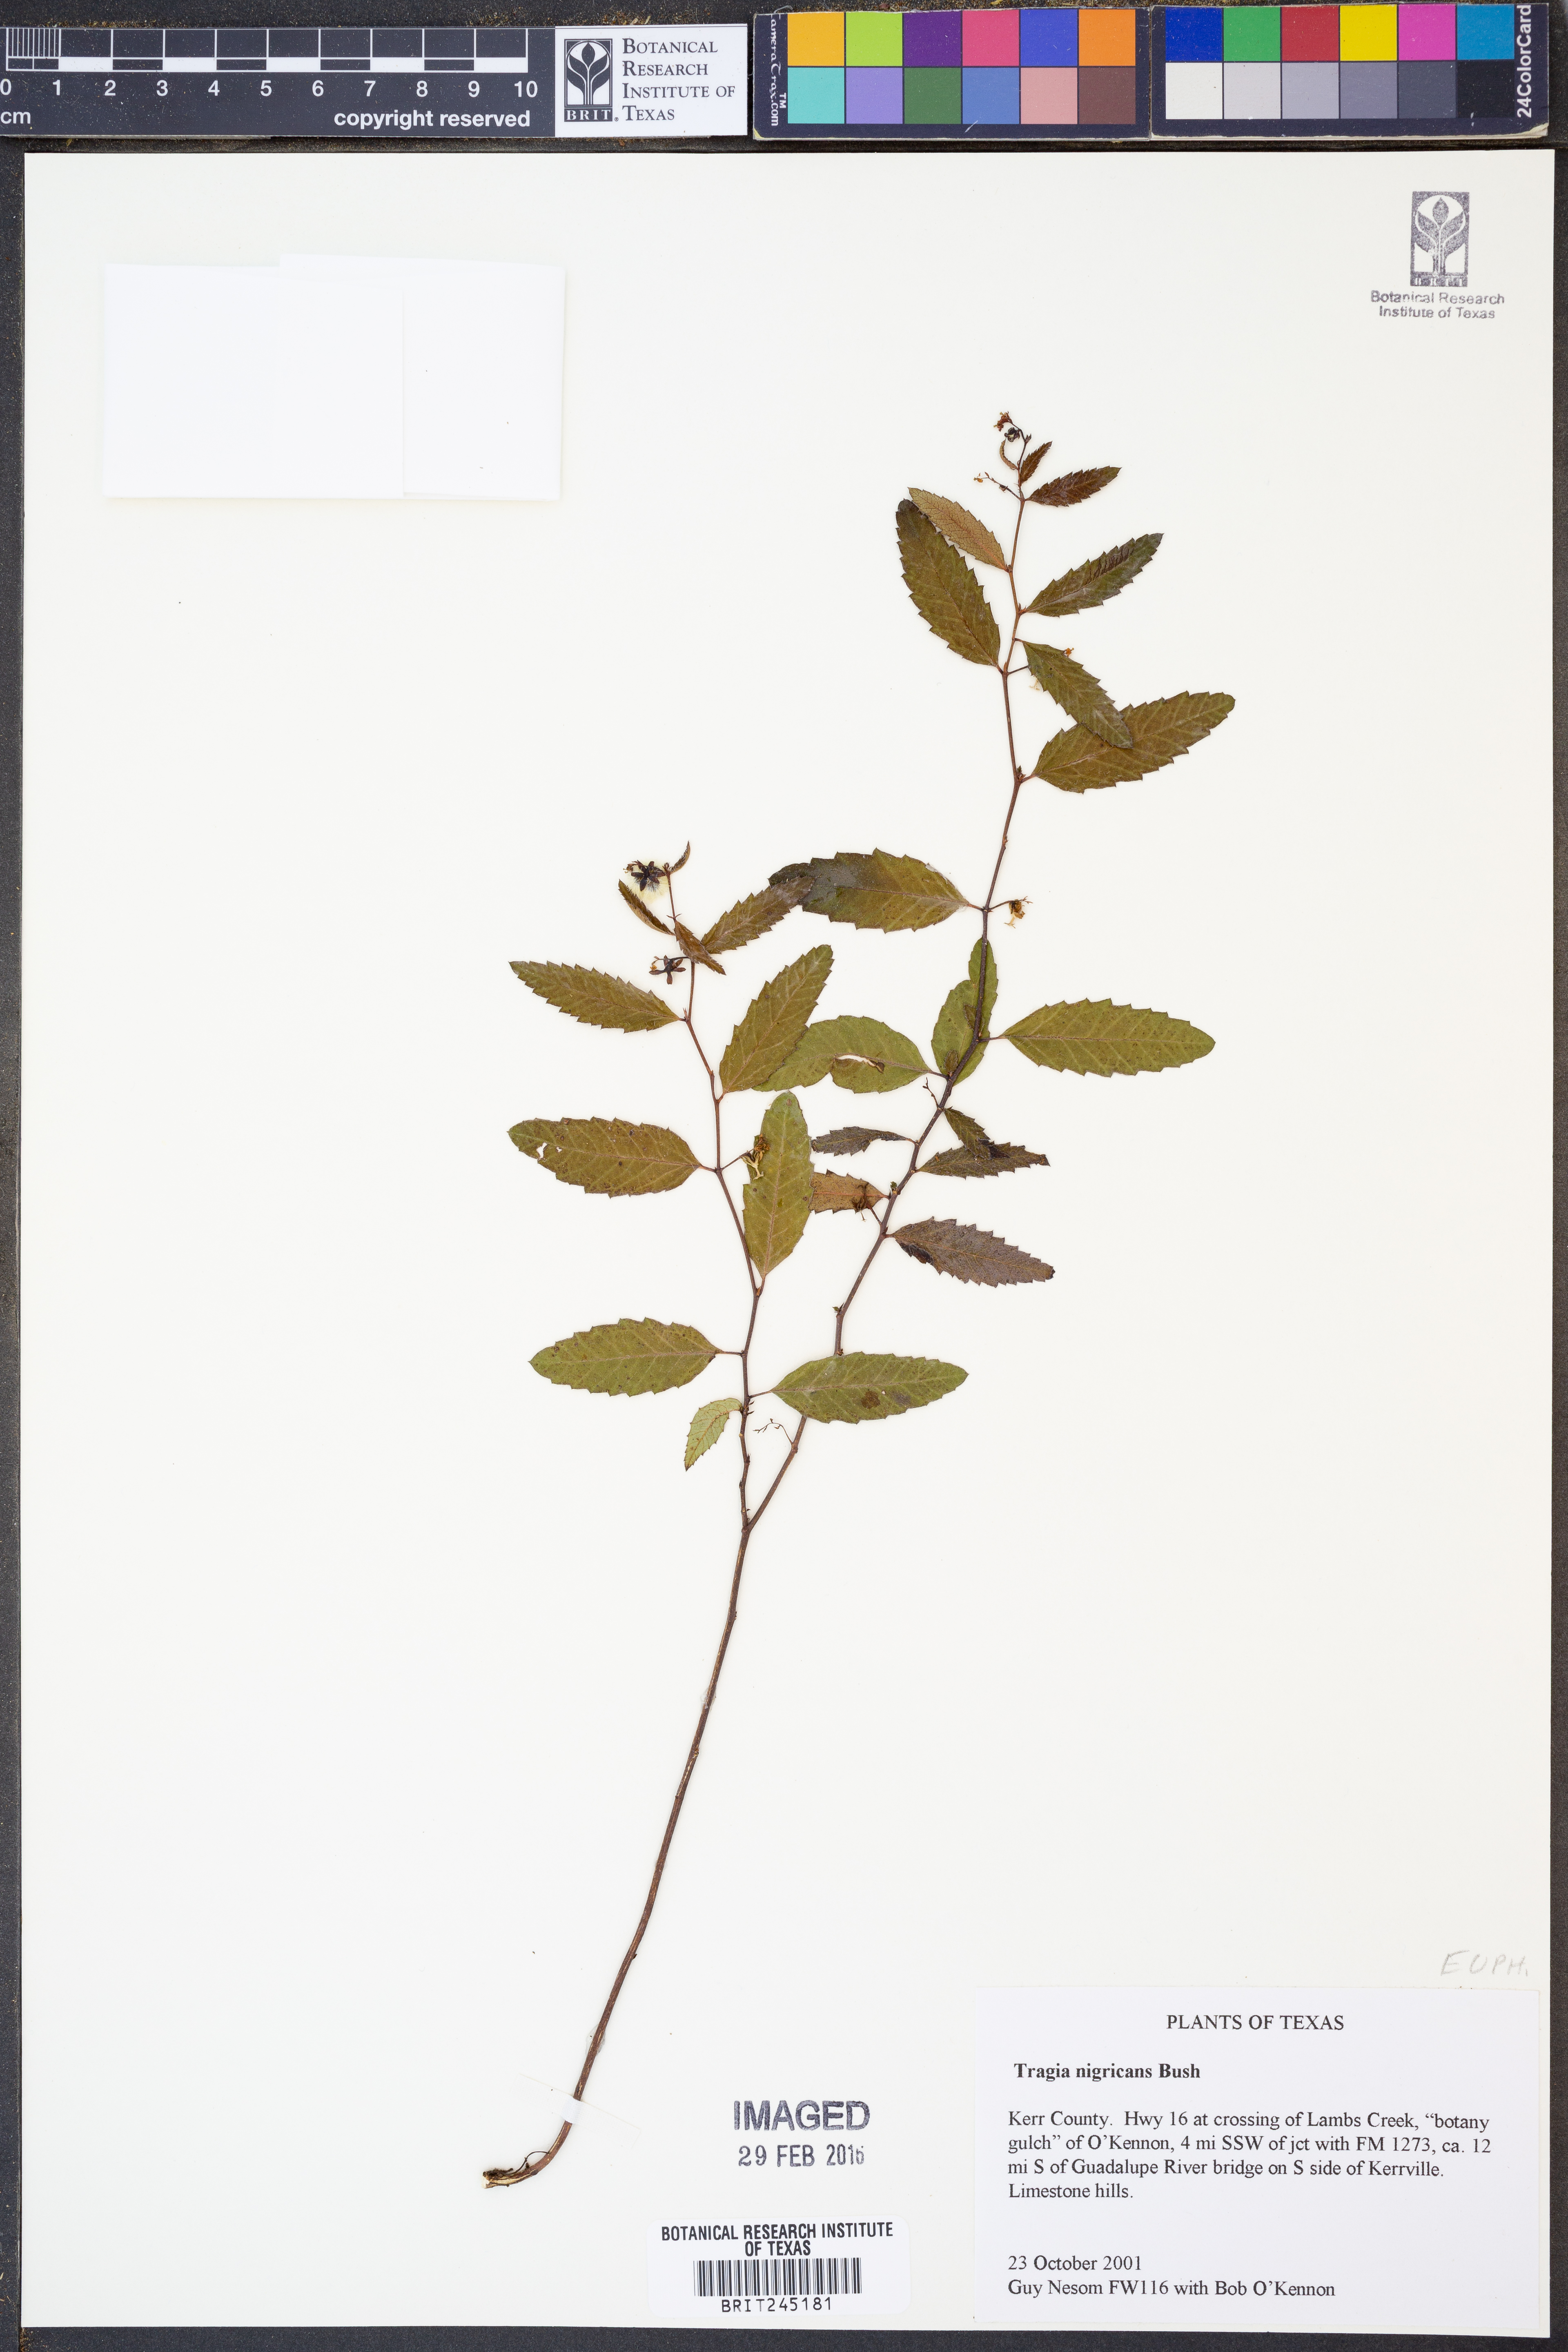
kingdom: Plantae
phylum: Tracheophyta
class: Magnoliopsida
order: Malpighiales
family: Euphorbiaceae
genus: Tragia
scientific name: Tragia nigricans
